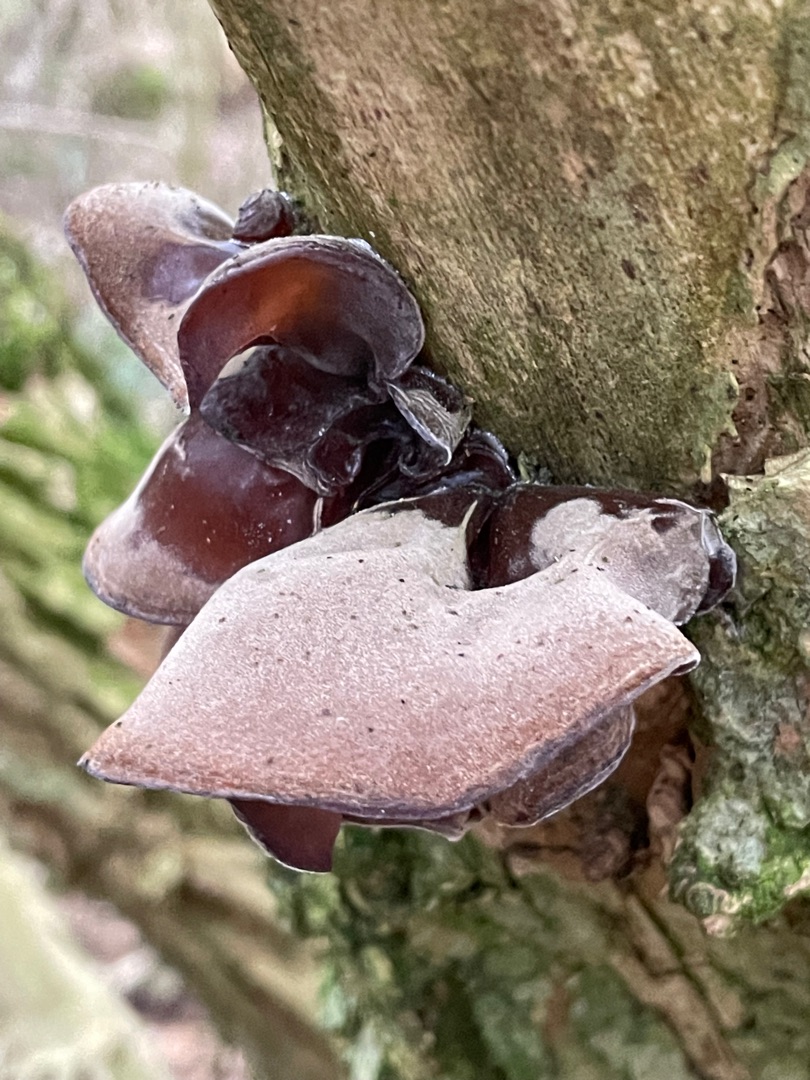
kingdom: Fungi
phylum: Basidiomycota
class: Agaricomycetes
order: Auriculariales
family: Auriculariaceae
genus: Auricularia
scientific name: Auricularia auricula-judae
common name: Almindelig judasøre
